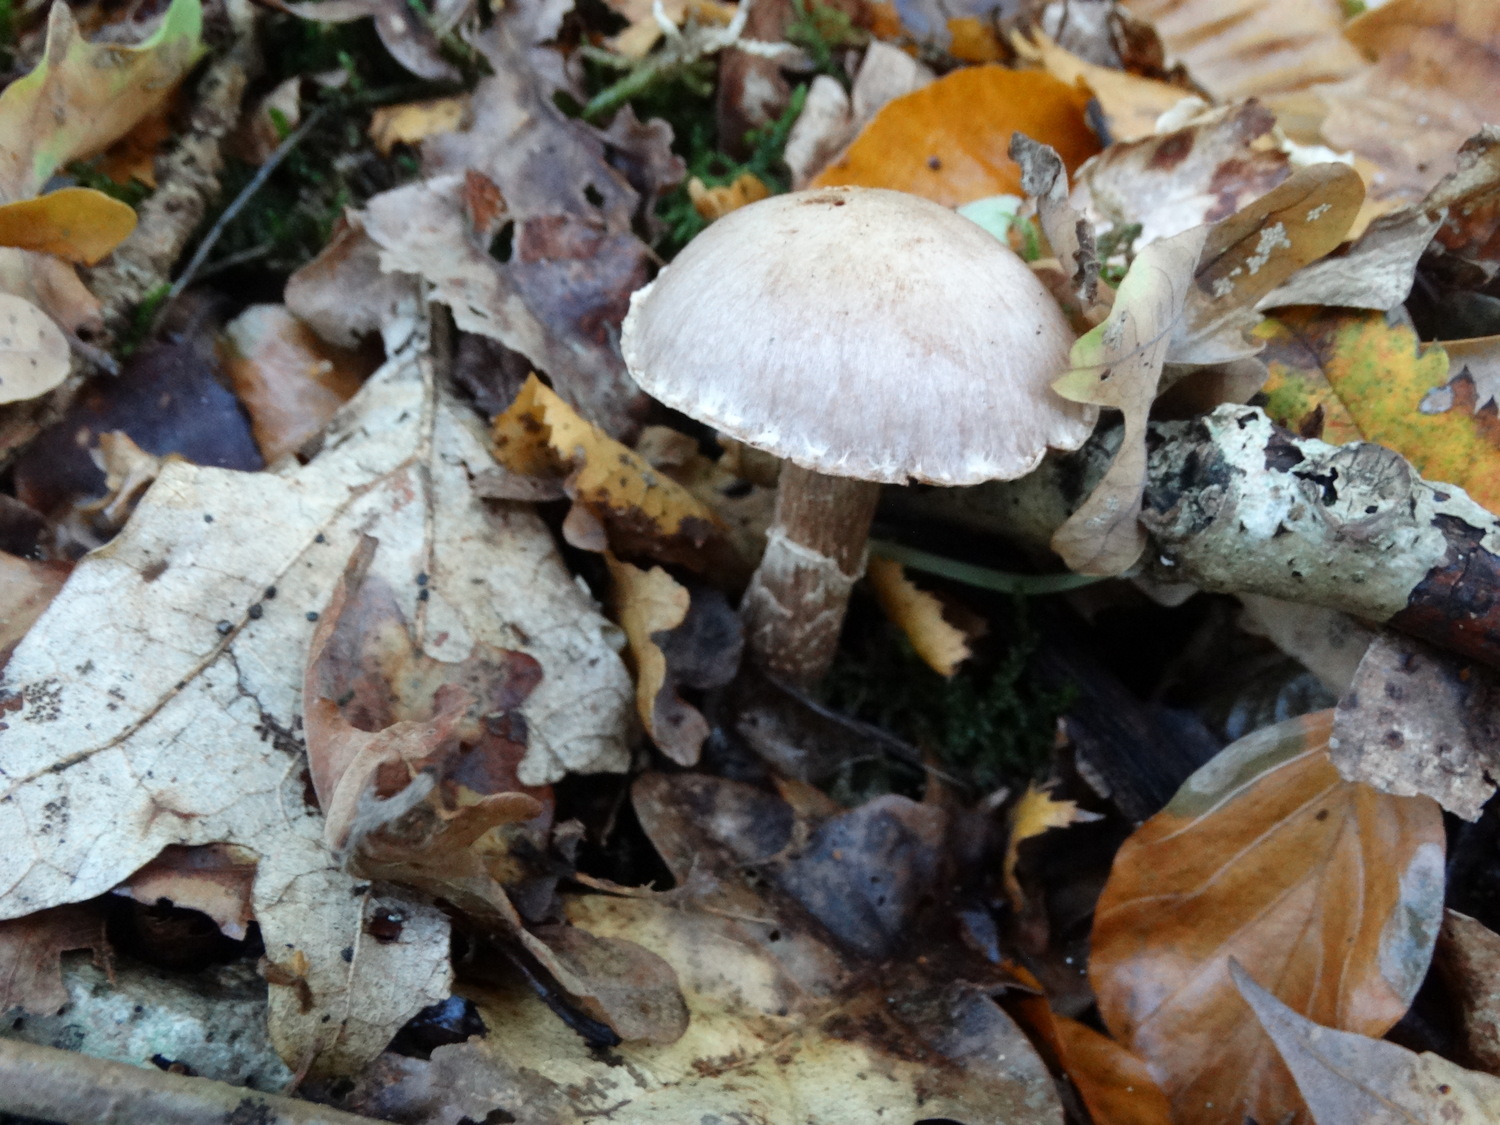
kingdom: Fungi
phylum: Basidiomycota
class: Agaricomycetes
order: Agaricales
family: Cortinariaceae
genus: Cortinarius
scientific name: Cortinarius
